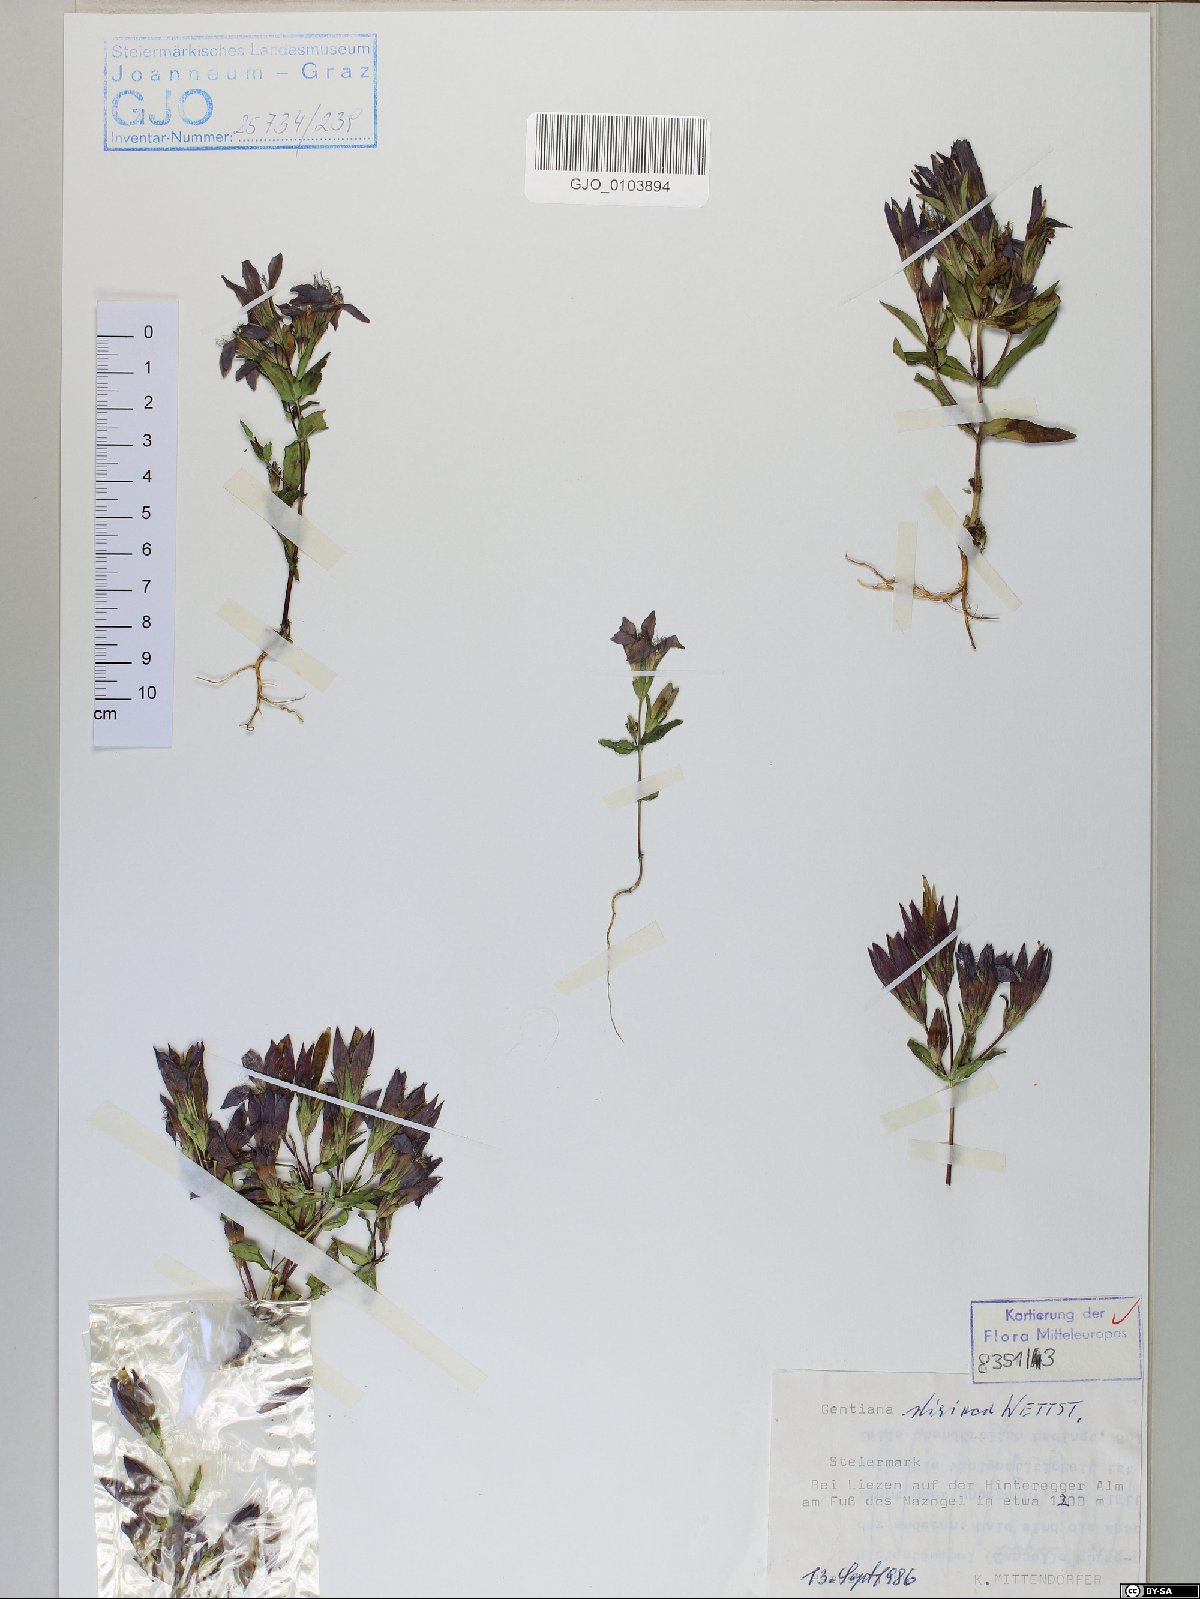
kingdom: Plantae
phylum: Tracheophyta
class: Magnoliopsida
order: Gentianales
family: Gentianaceae
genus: Gentianella
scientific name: Gentianella rhaetica
